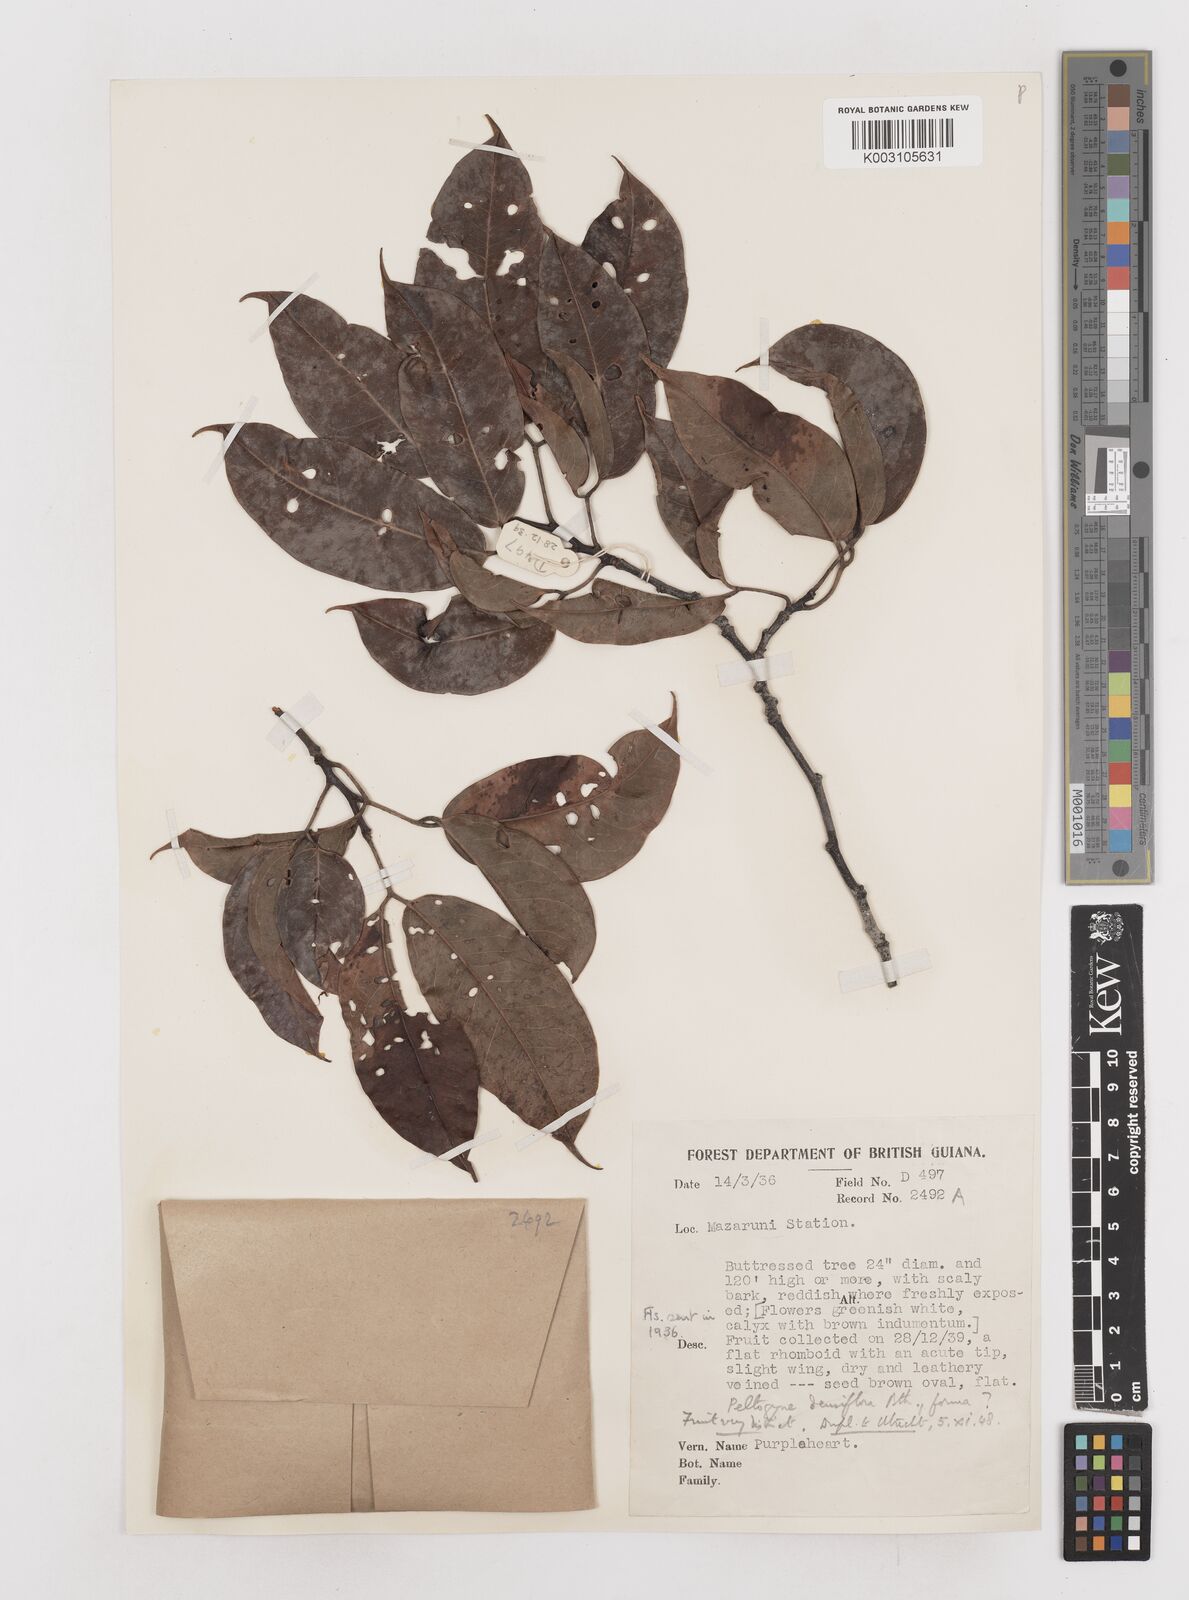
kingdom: Plantae
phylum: Tracheophyta
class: Magnoliopsida
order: Fabales
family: Fabaceae
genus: Peltogyne
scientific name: Peltogyne venosa
